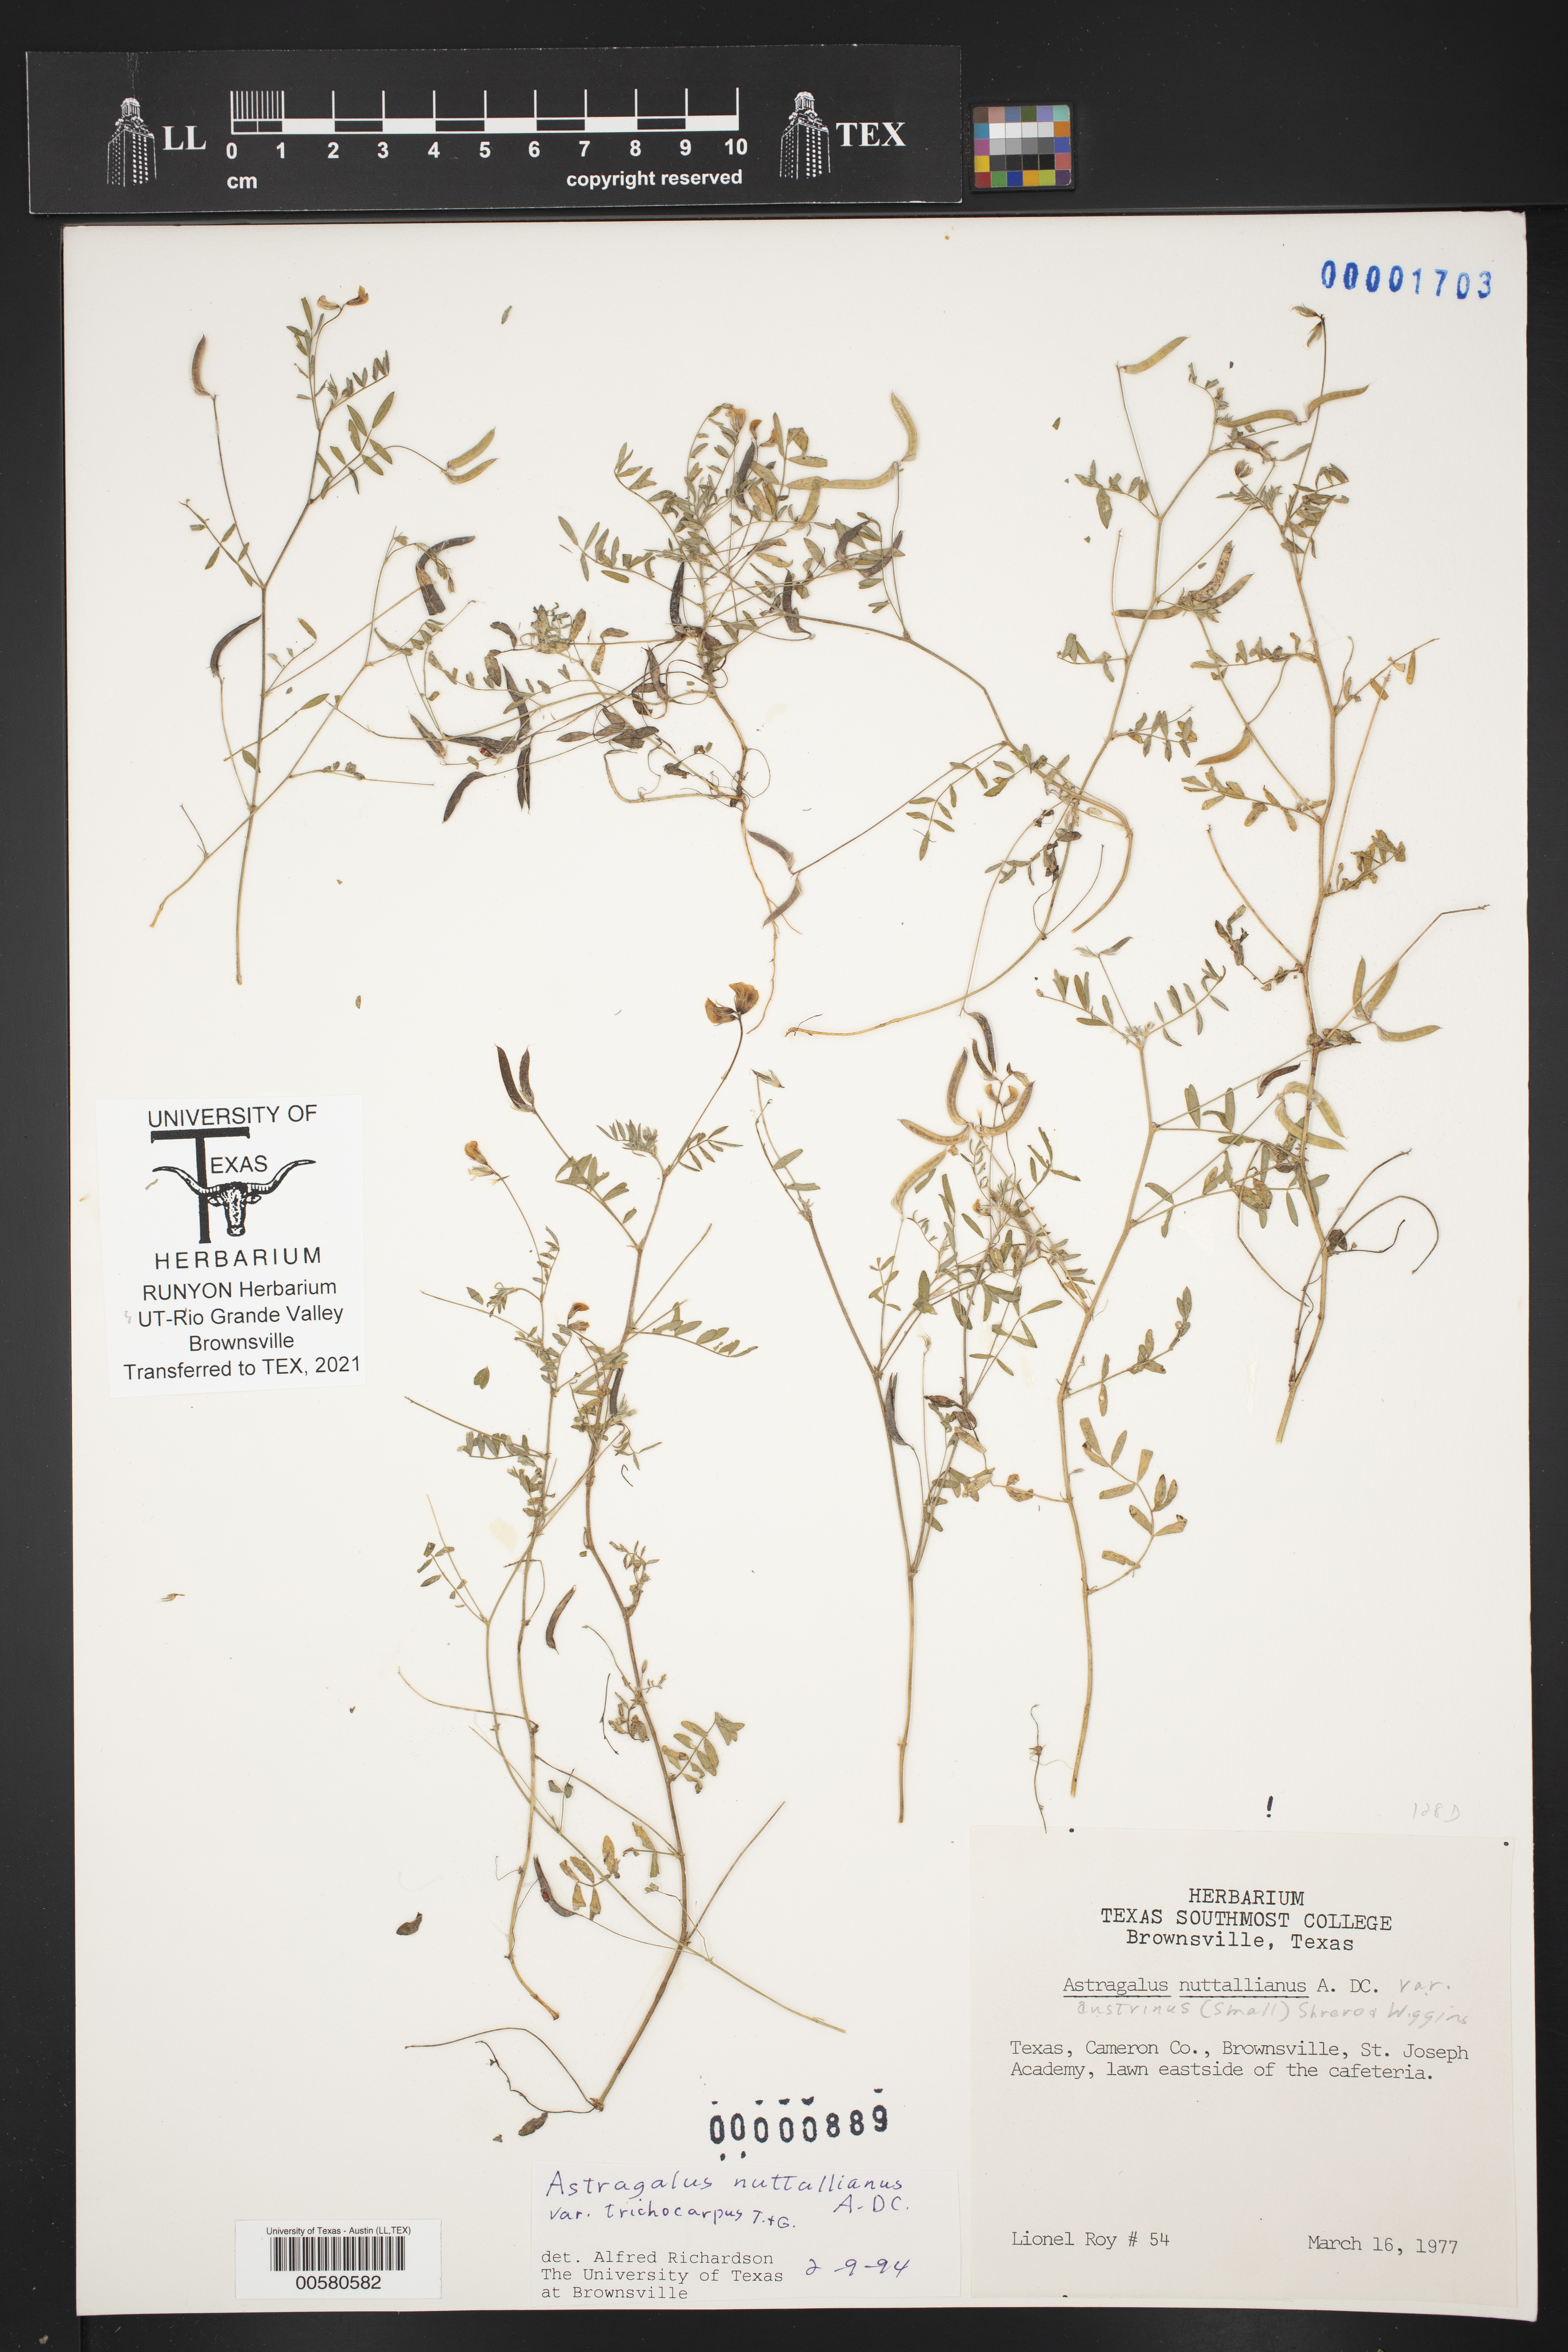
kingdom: Plantae
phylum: Tracheophyta
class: Magnoliopsida
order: Fabales
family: Fabaceae
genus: Astragalus
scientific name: Astragalus nuttallianus
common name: Smallflowered milkvetch
